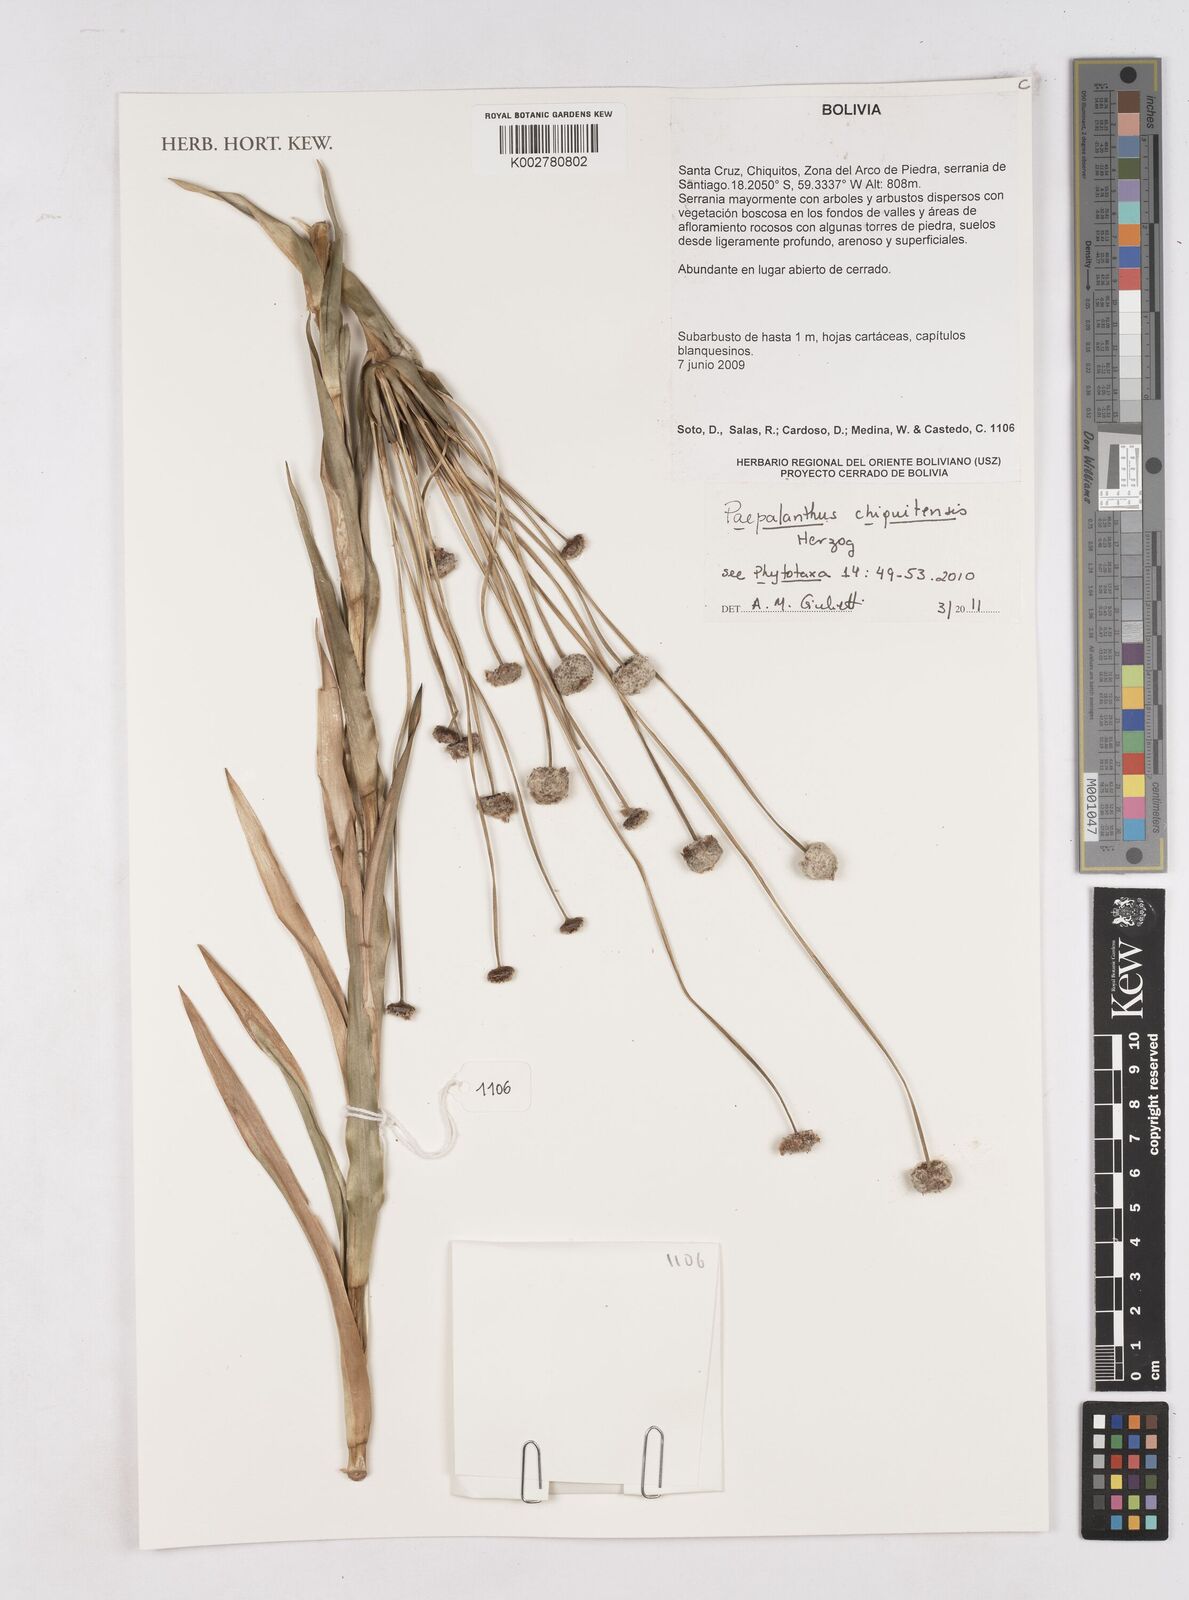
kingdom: Plantae
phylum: Tracheophyta
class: Liliopsida
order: Poales
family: Eriocaulaceae
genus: Paepalanthus
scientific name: Paepalanthus chiquitensis
